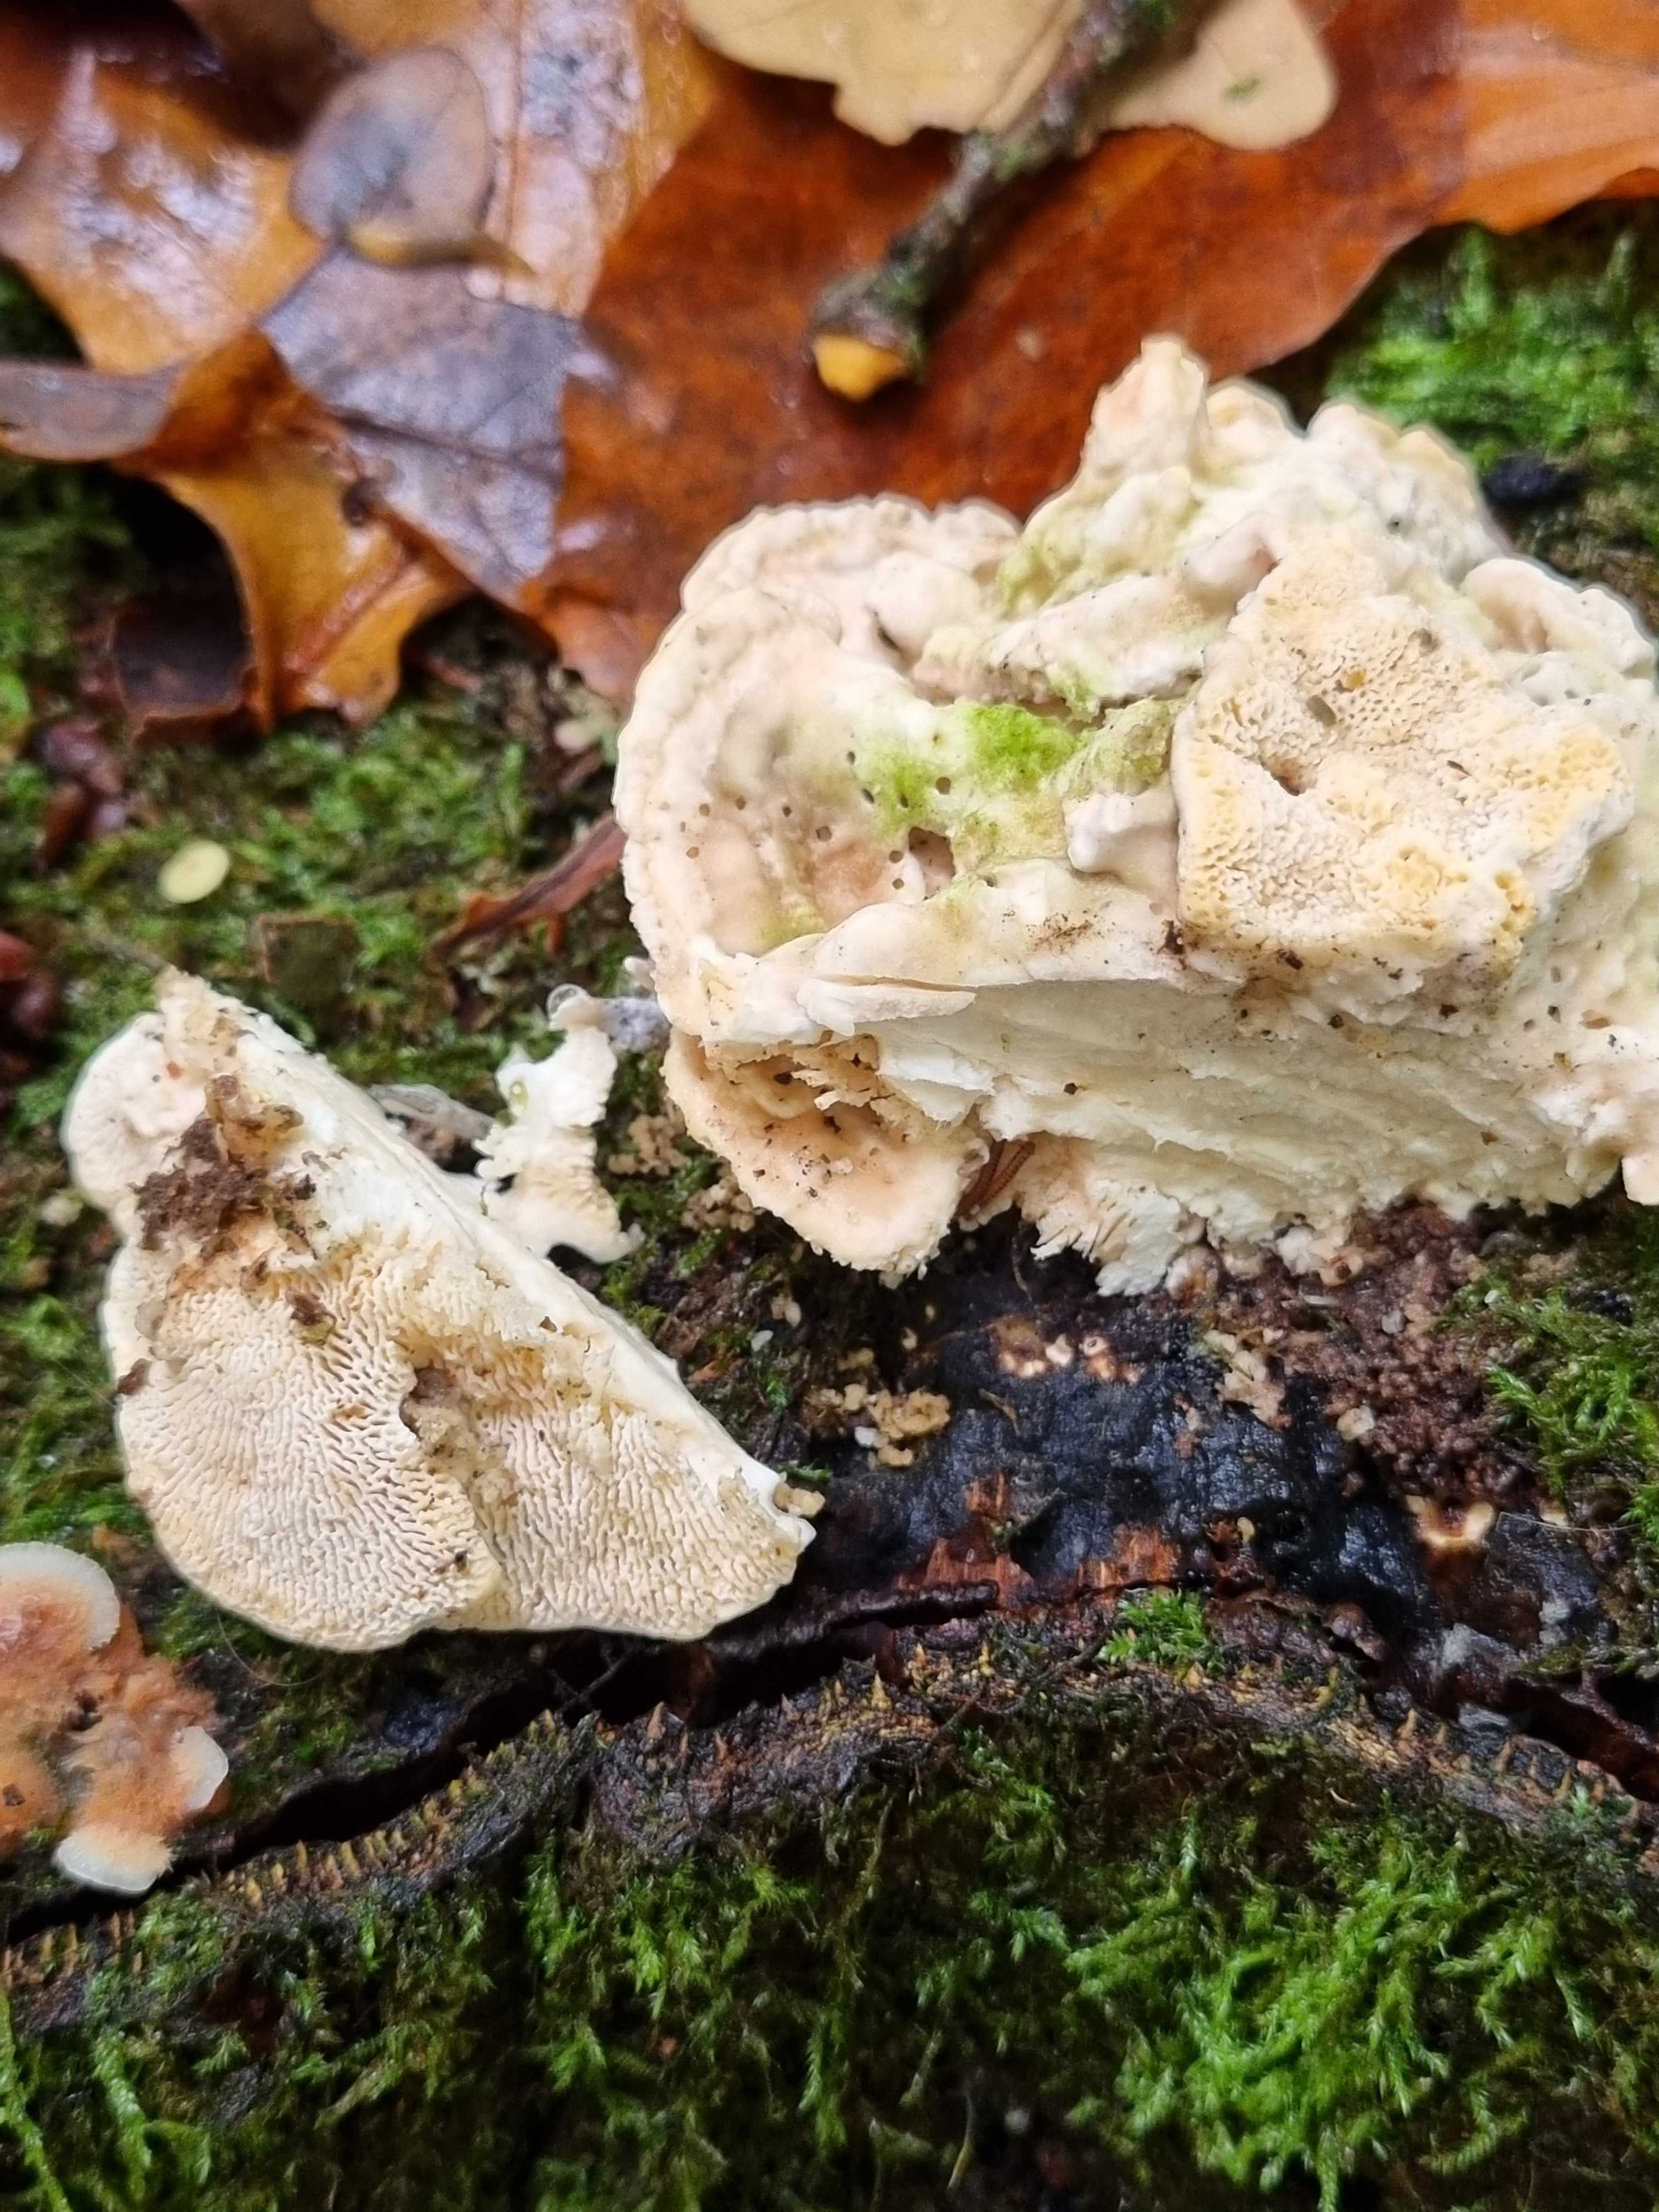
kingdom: Fungi
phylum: Basidiomycota
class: Agaricomycetes
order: Polyporales
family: Polyporaceae
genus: Trametes
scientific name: Trametes gibbosa
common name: puklet læderporesvamp
